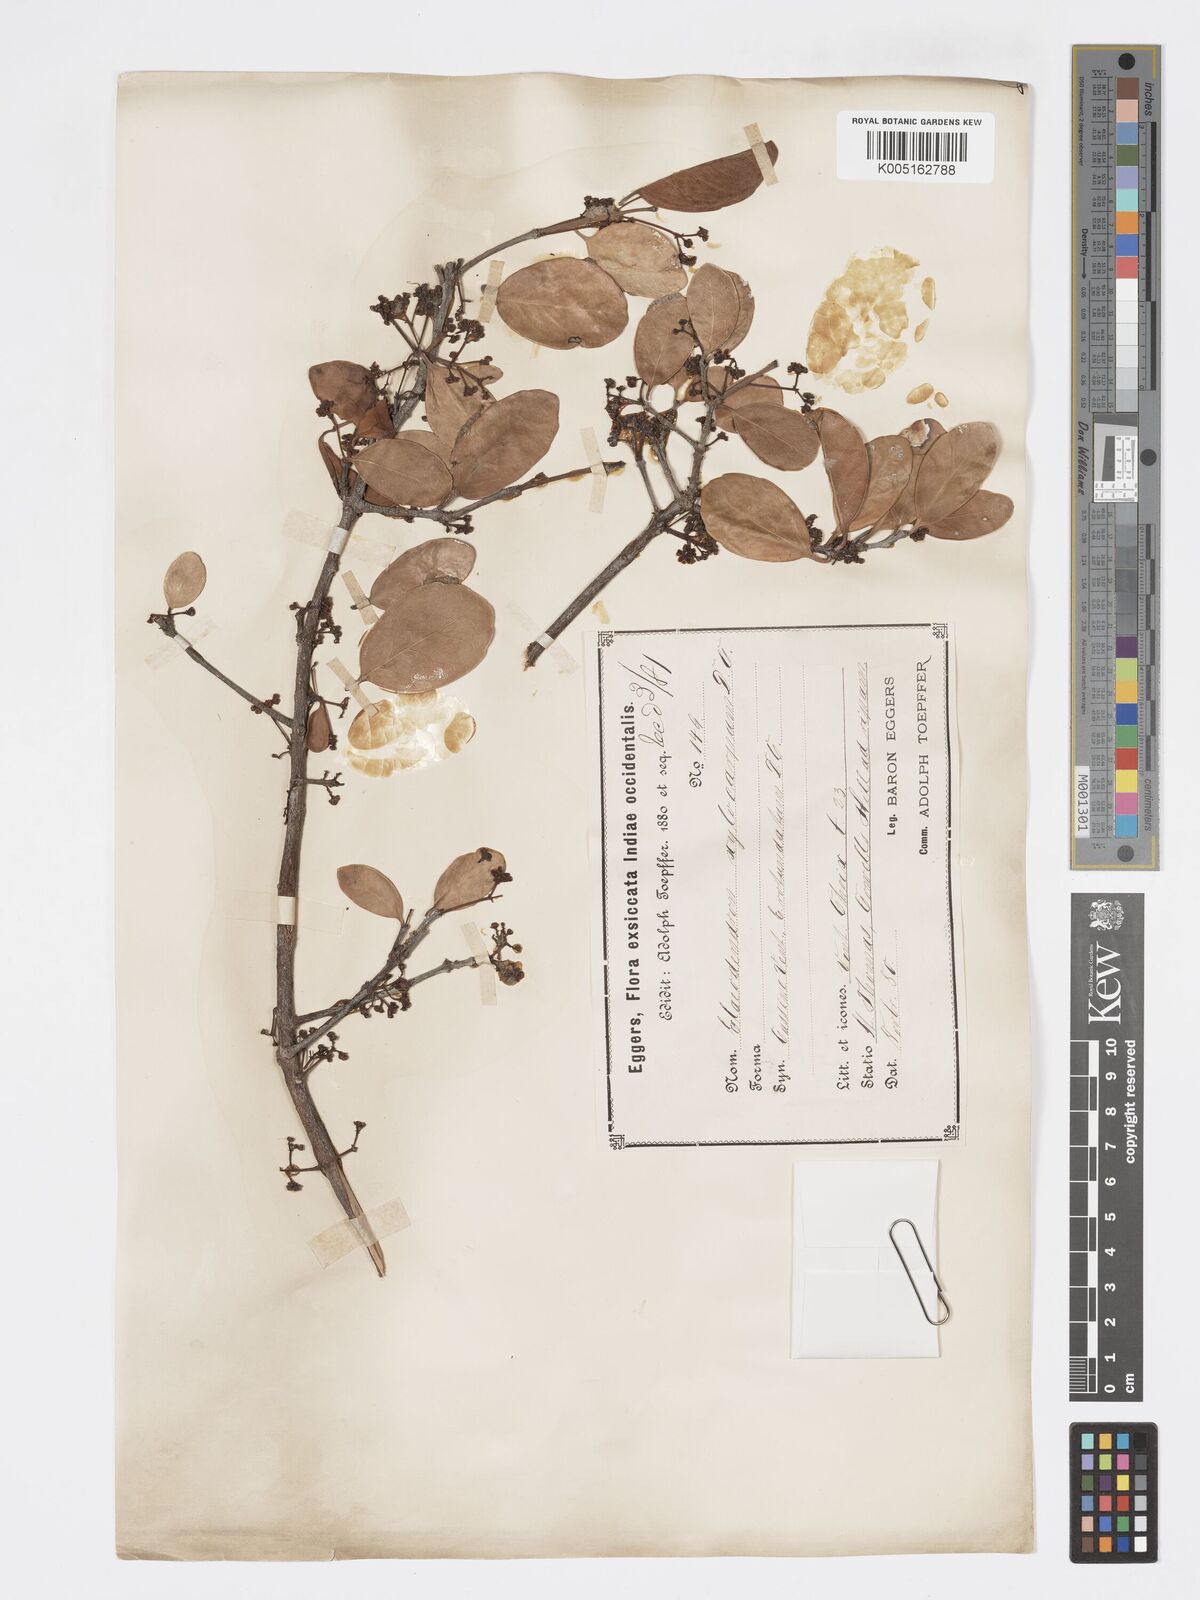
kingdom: Plantae
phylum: Tracheophyta
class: Magnoliopsida
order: Celastrales
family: Celastraceae
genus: Elaeodendron
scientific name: Elaeodendron
